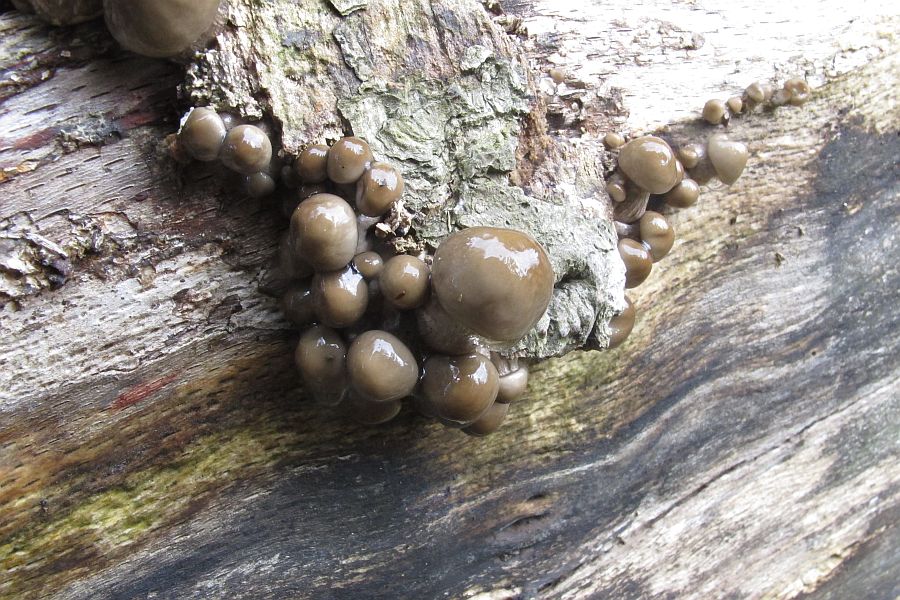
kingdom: Fungi
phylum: Basidiomycota
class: Agaricomycetes
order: Agaricales
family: Physalacriaceae
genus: Mucidula
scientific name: Mucidula mucida
